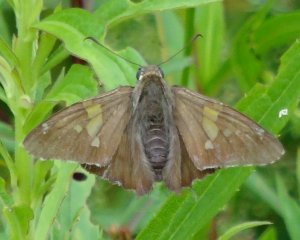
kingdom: Animalia
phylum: Arthropoda
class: Insecta
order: Lepidoptera
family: Hesperiidae
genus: Epargyreus
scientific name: Epargyreus clarus
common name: Silver-spotted Skipper
